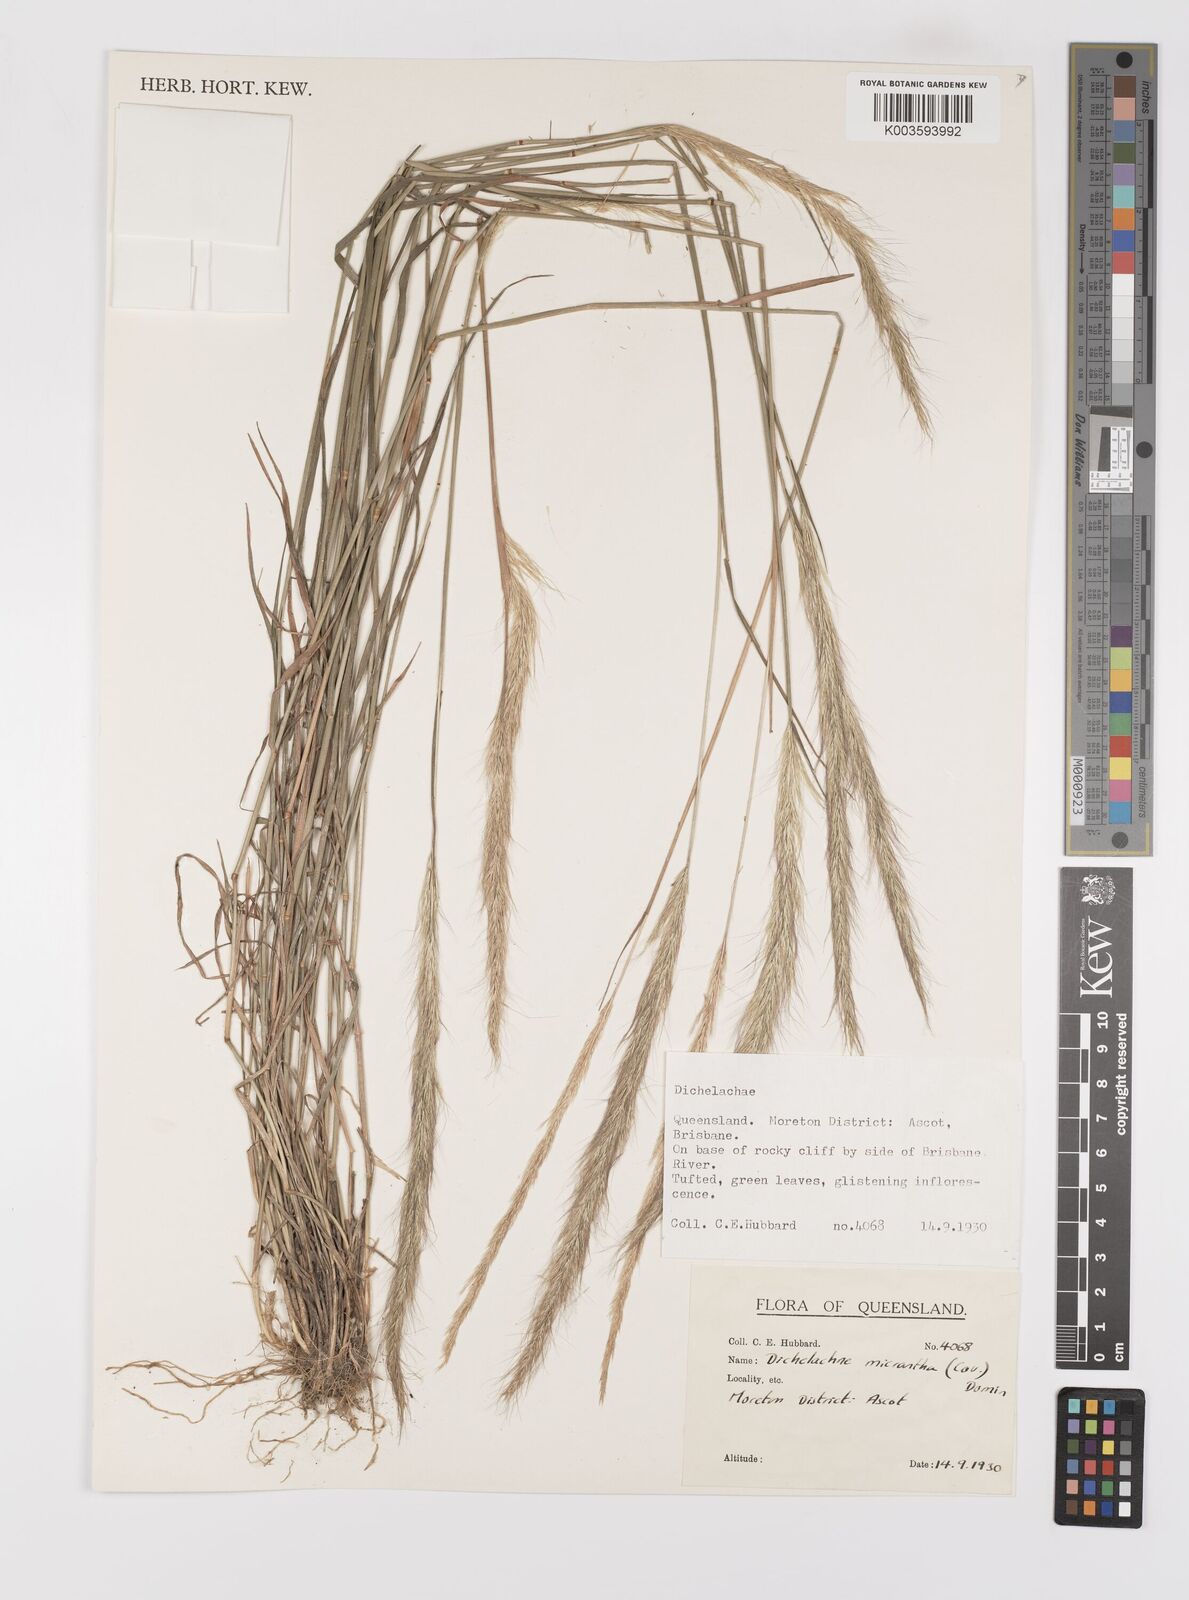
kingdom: Plantae
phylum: Tracheophyta
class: Liliopsida
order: Poales
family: Poaceae
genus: Dichelachne
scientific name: Dichelachne micrantha
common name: Plumegrass
